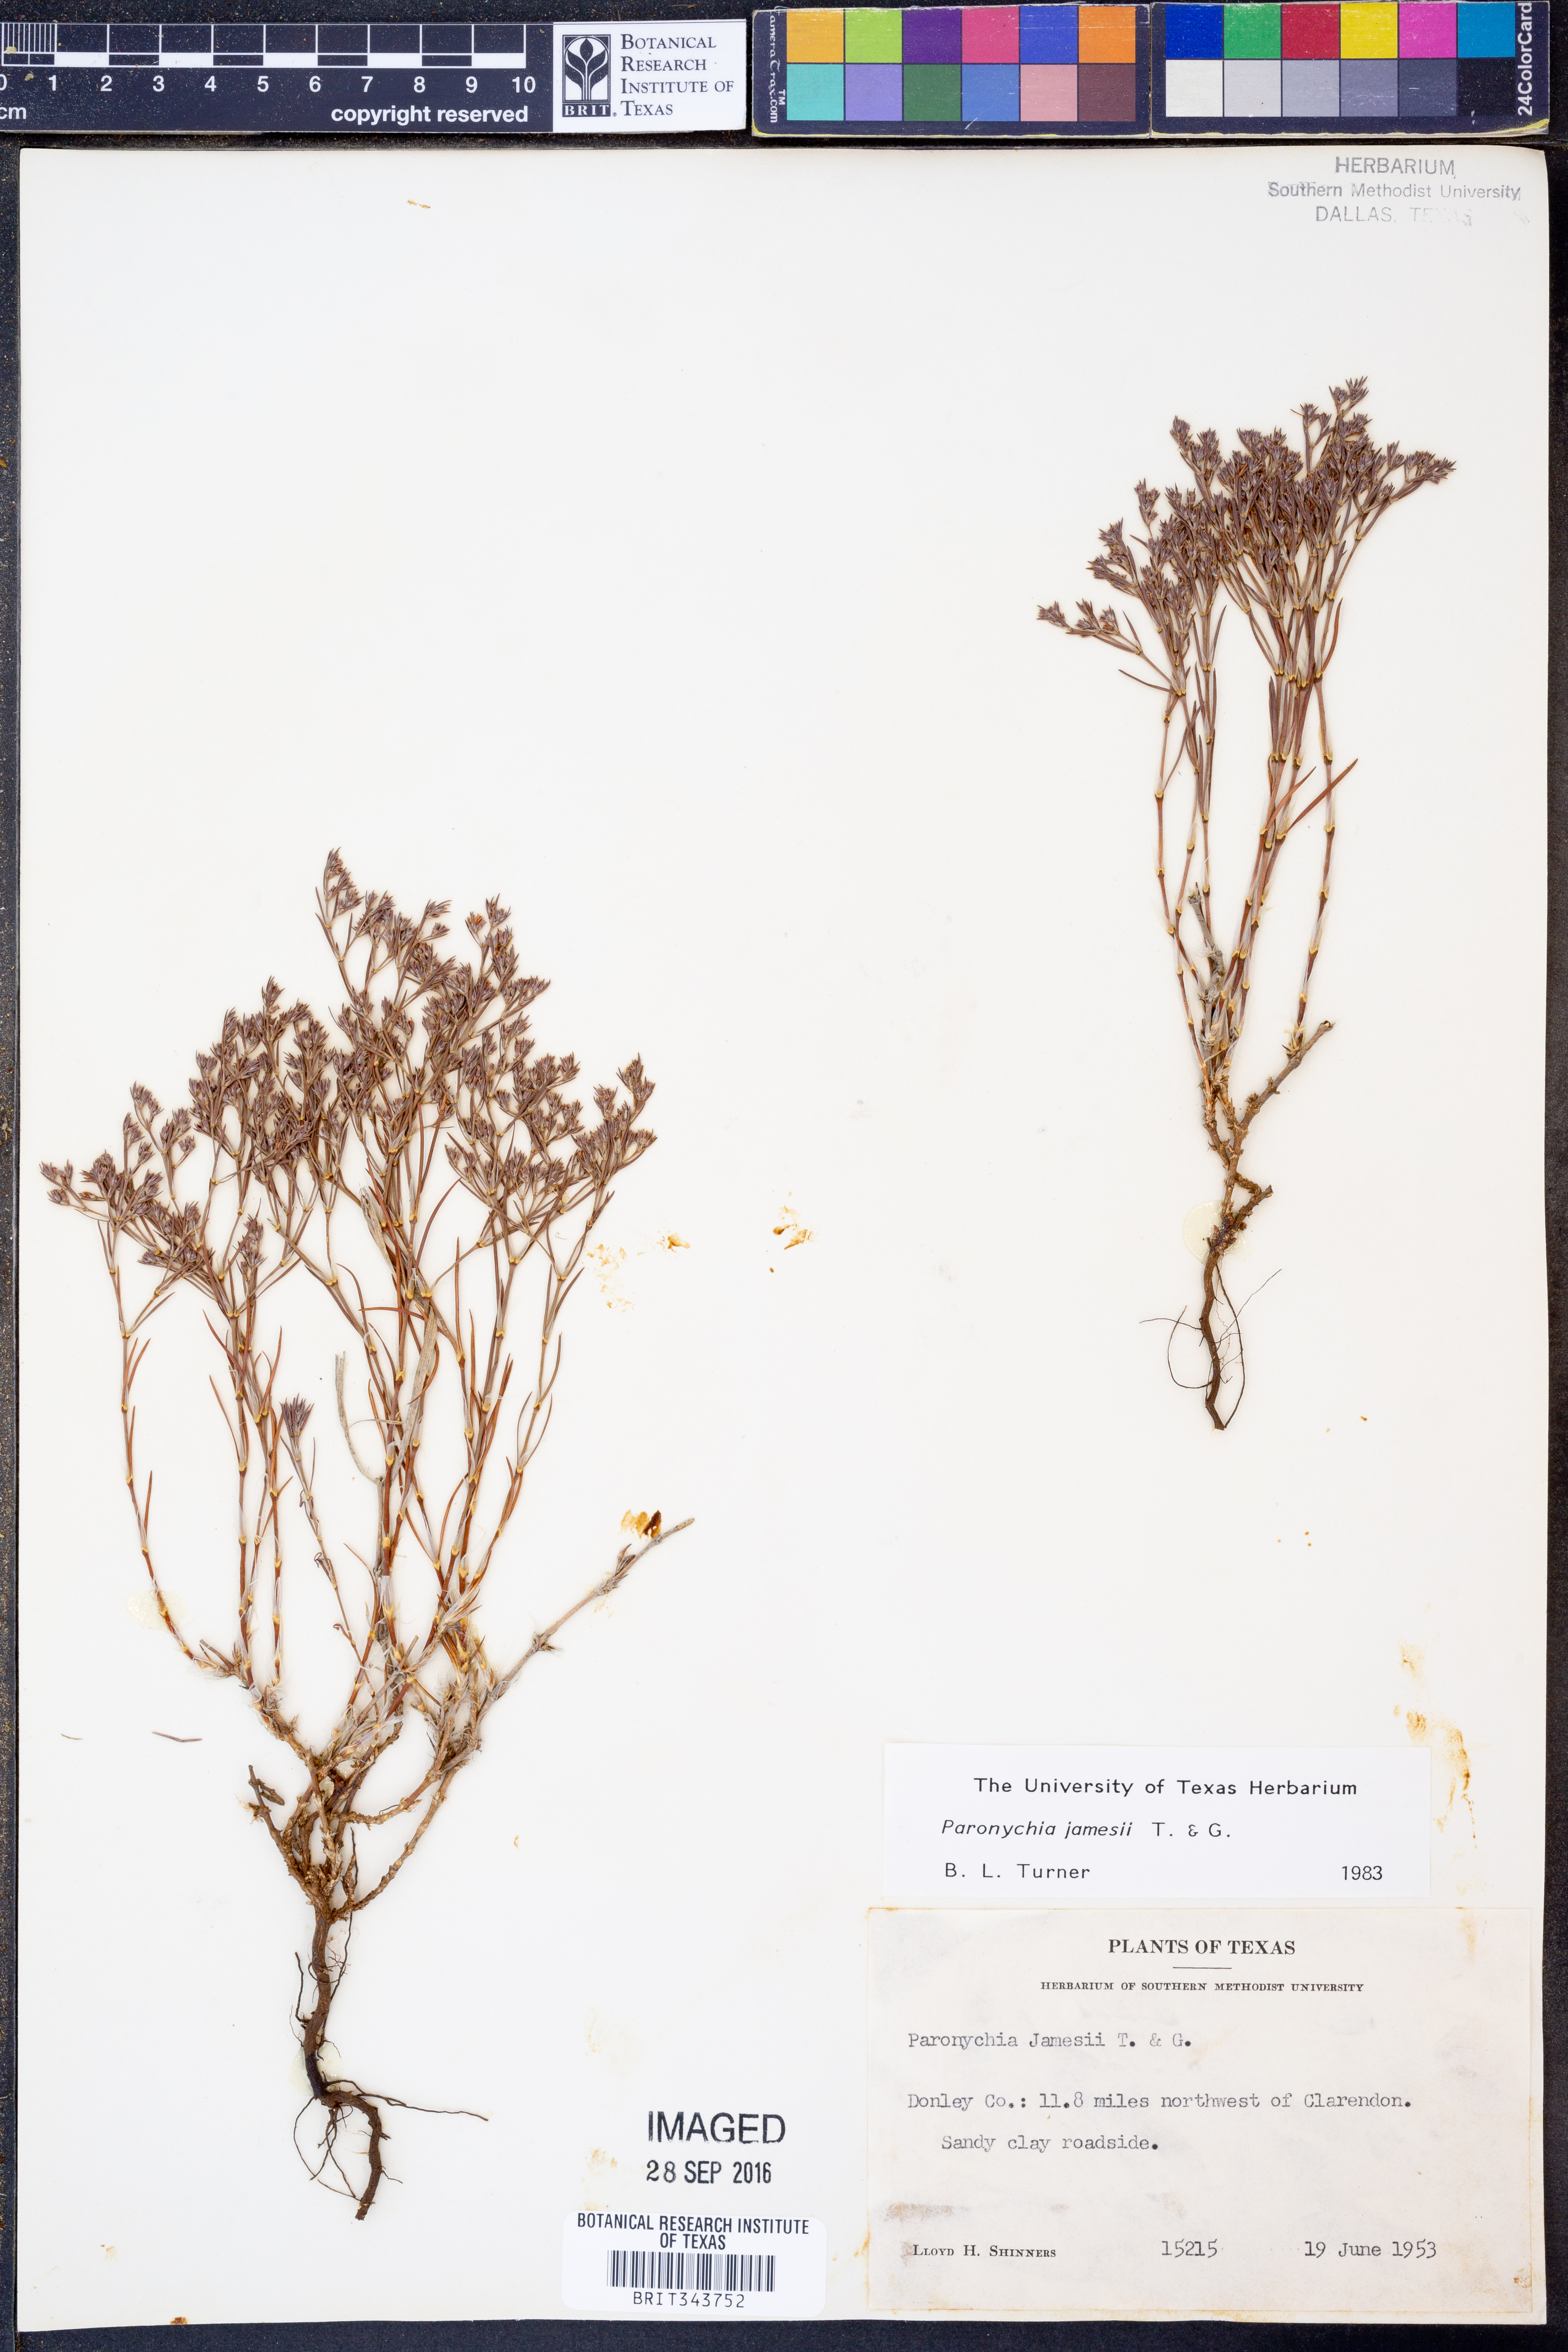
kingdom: Plantae
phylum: Tracheophyta
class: Magnoliopsida
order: Caryophyllales
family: Caryophyllaceae
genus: Paronychia
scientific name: Paronychia jamesii
